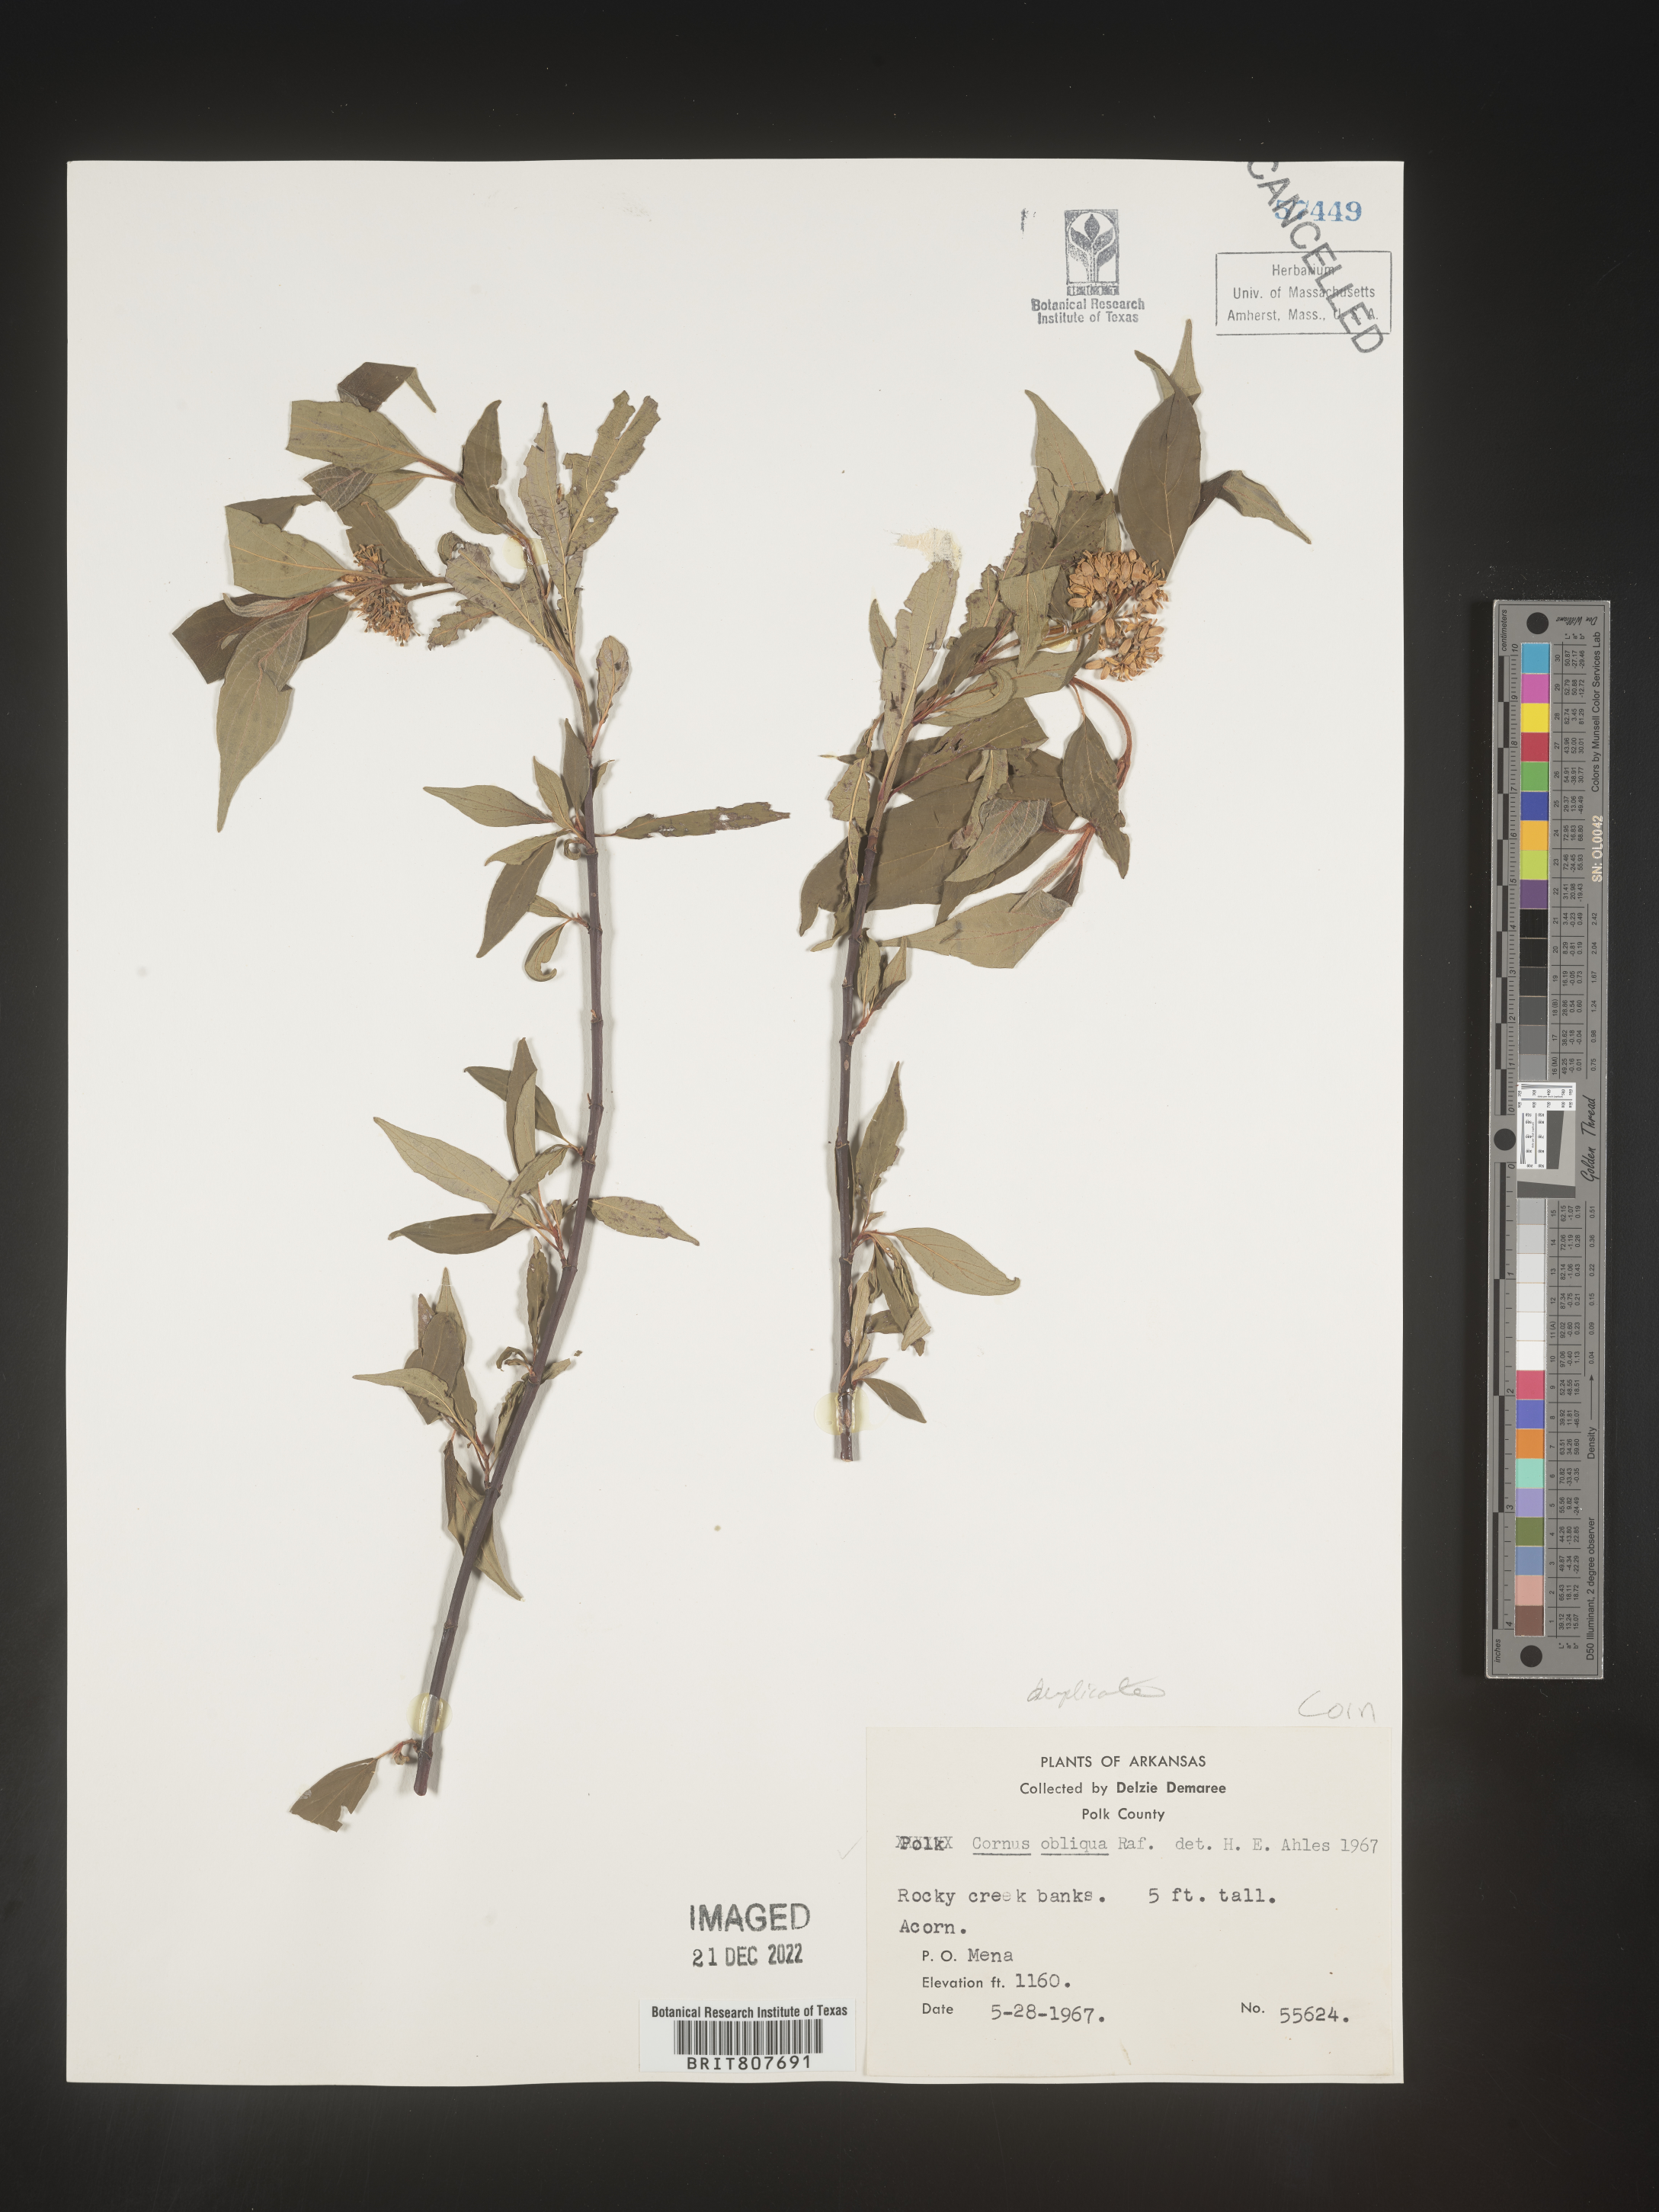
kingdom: Plantae
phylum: Tracheophyta
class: Magnoliopsida
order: Cornales
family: Cornaceae
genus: Cornus
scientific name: Cornus obliqua
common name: Pale dogwood
